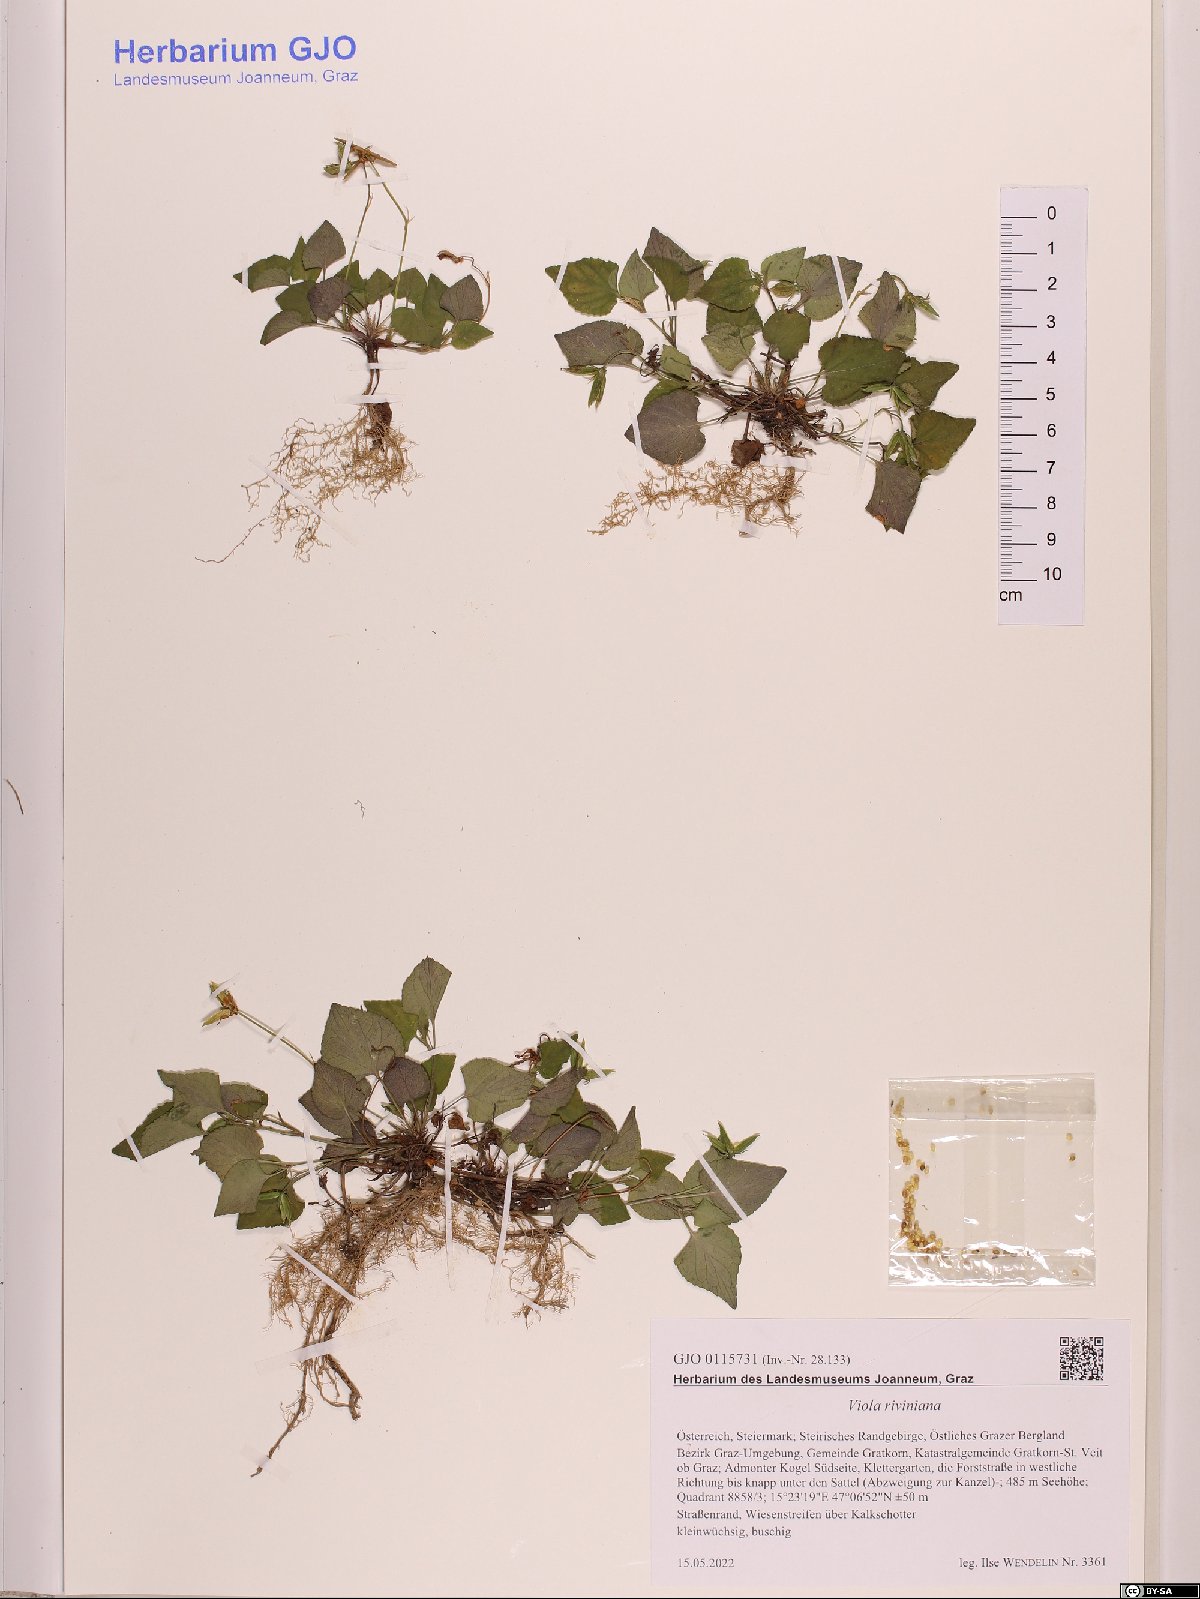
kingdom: Plantae
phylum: Tracheophyta
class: Magnoliopsida
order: Malpighiales
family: Violaceae
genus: Viola
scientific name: Viola riviniana
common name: Common dog-violet
